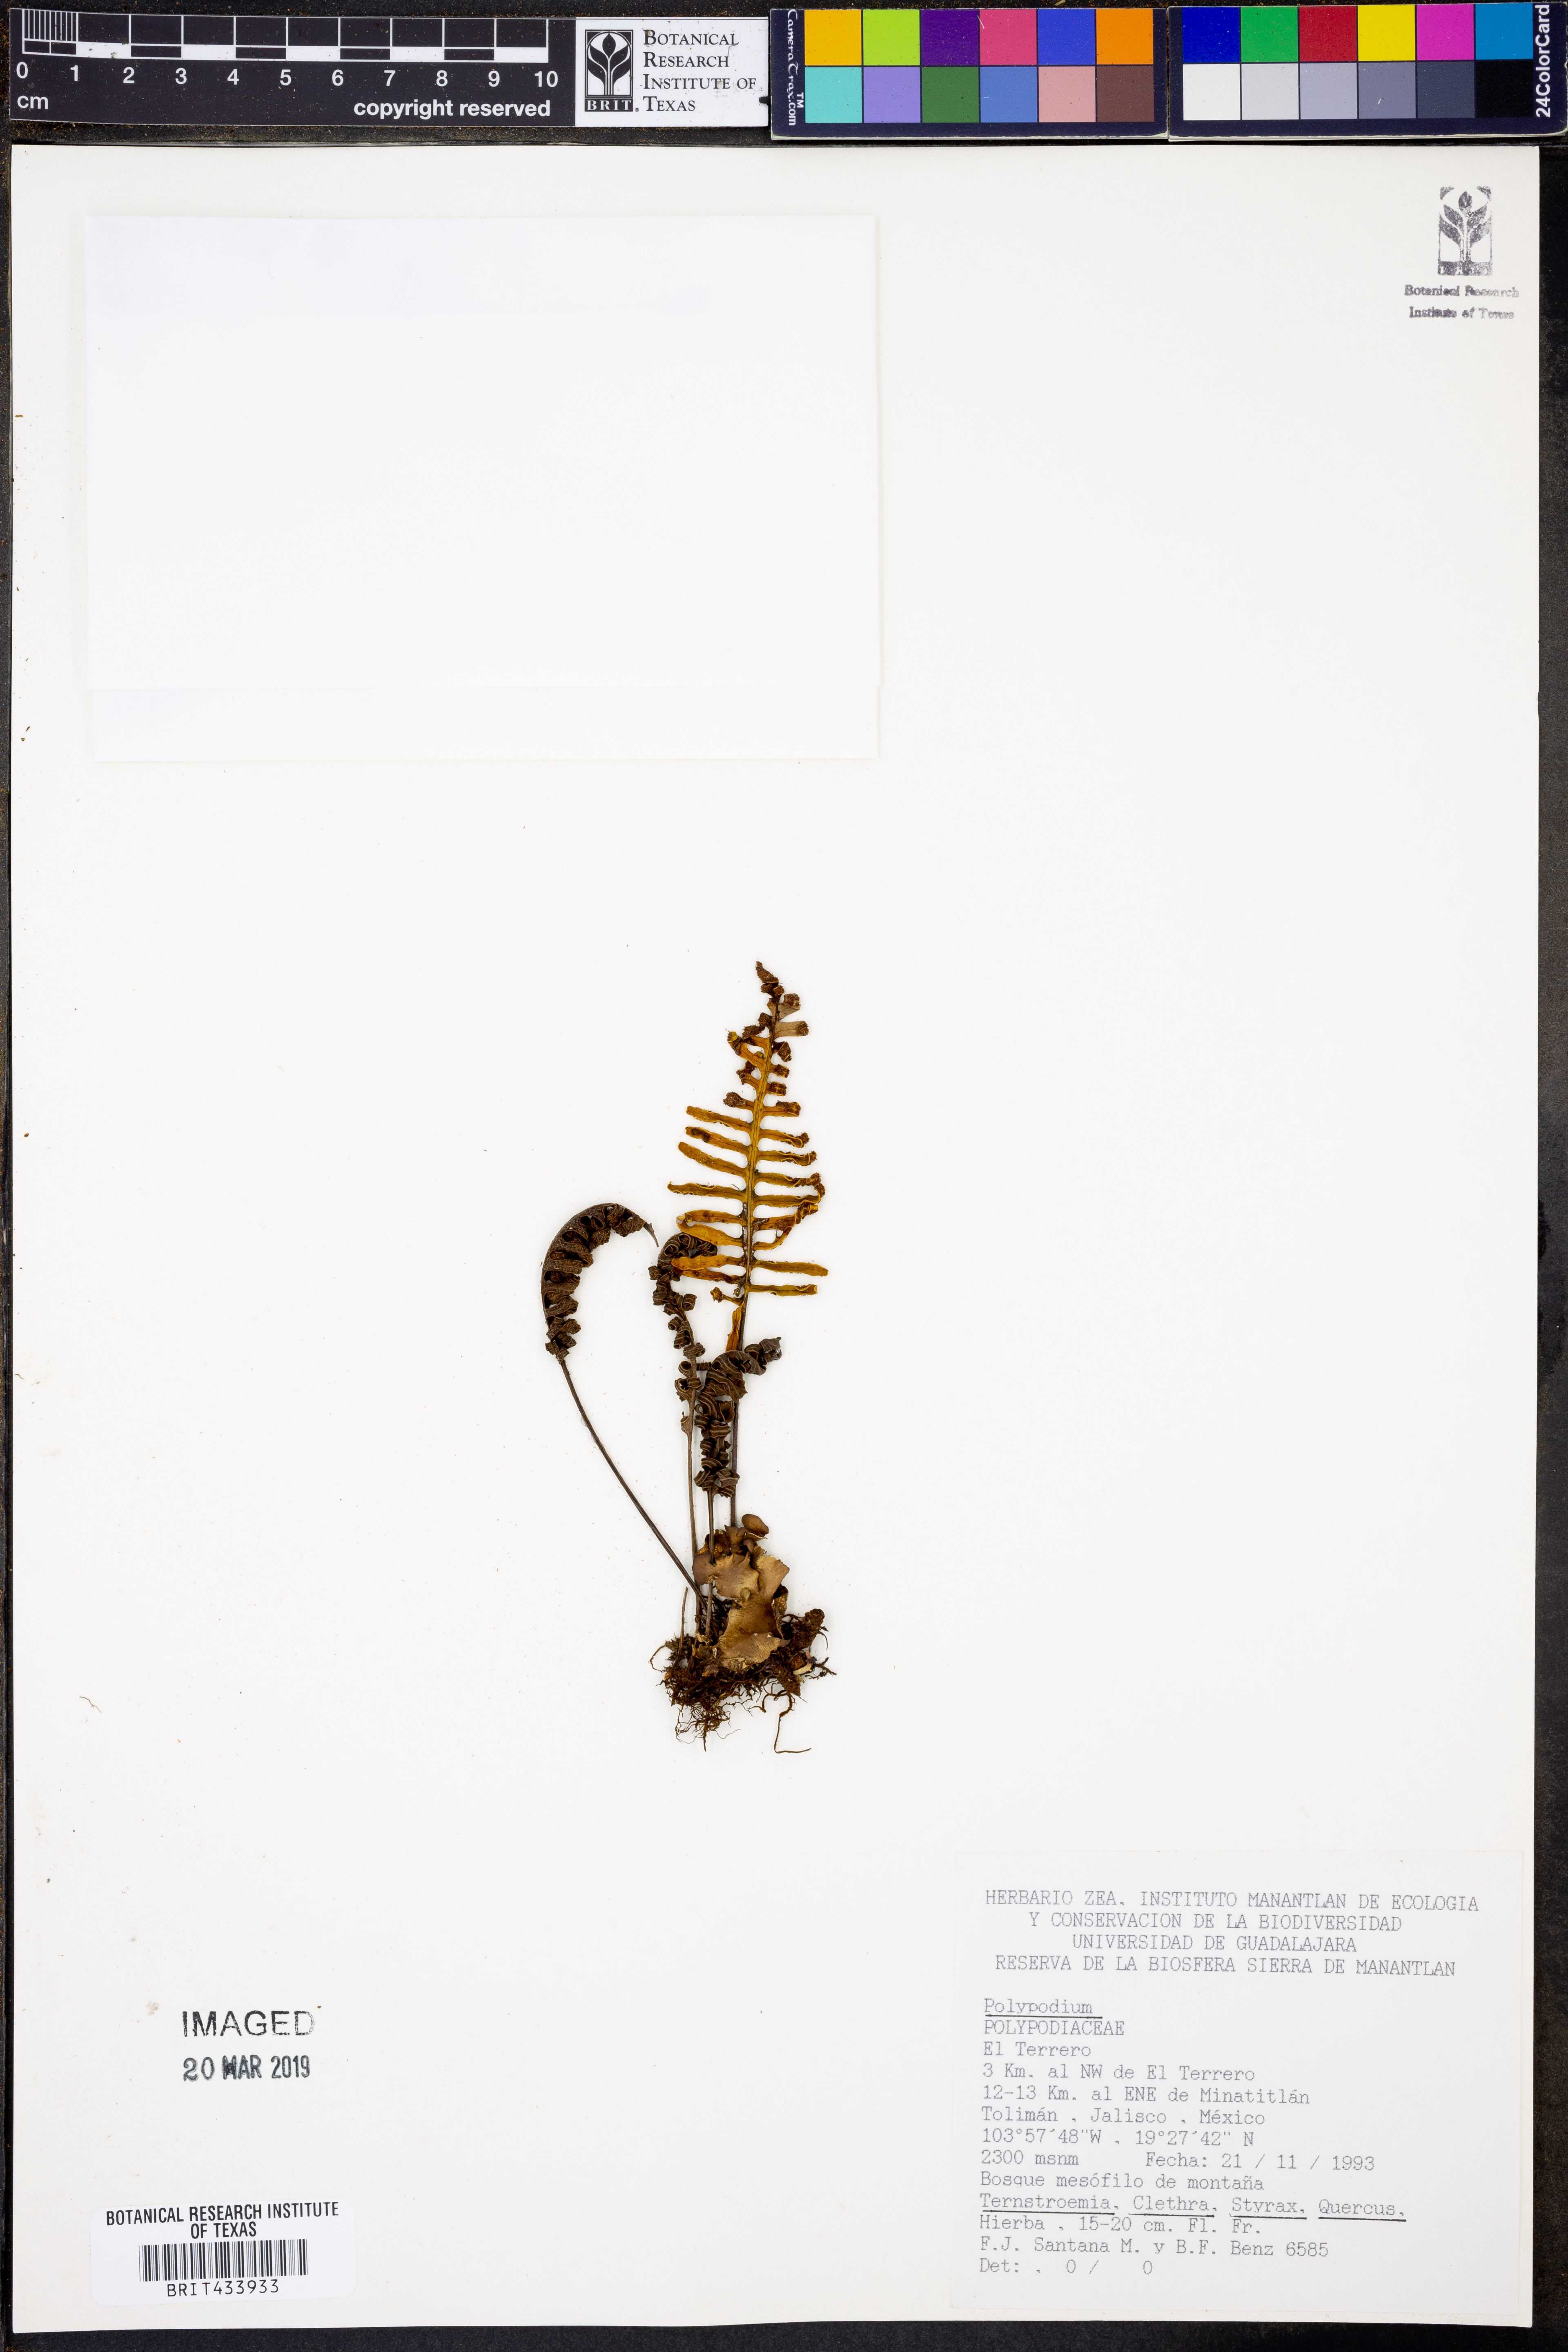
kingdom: Plantae
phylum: Tracheophyta
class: Polypodiopsida
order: Polypodiales
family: Polypodiaceae
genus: Polypodium
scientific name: Polypodium
